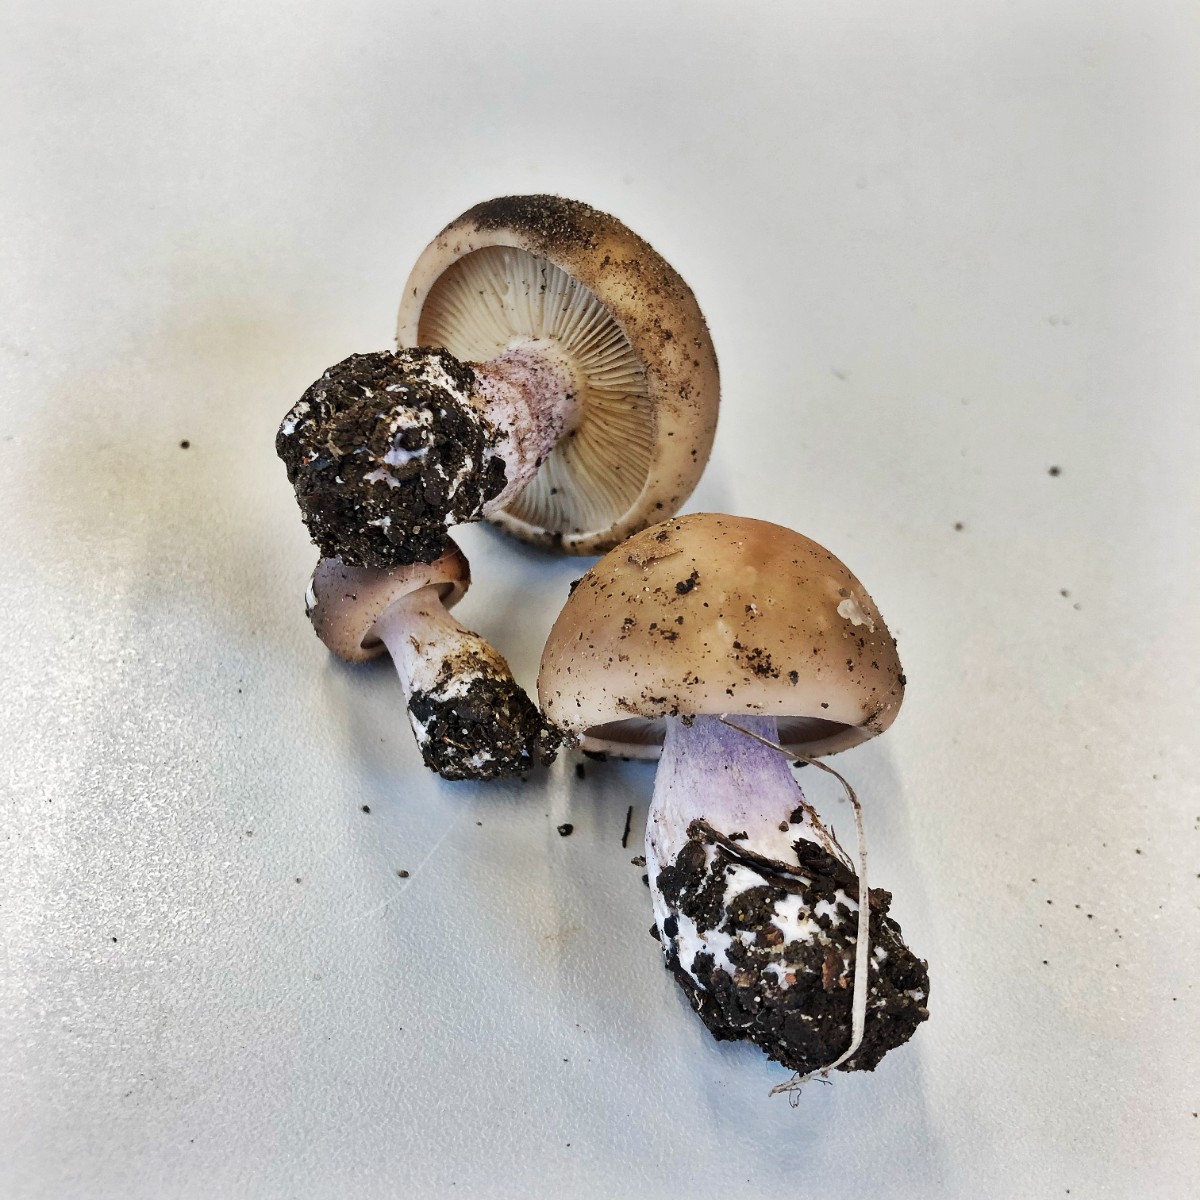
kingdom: Fungi
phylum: Basidiomycota
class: Agaricomycetes
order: Agaricales
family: Tricholomataceae
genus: Lepista
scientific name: Lepista personata
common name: bleg hekseringshat
